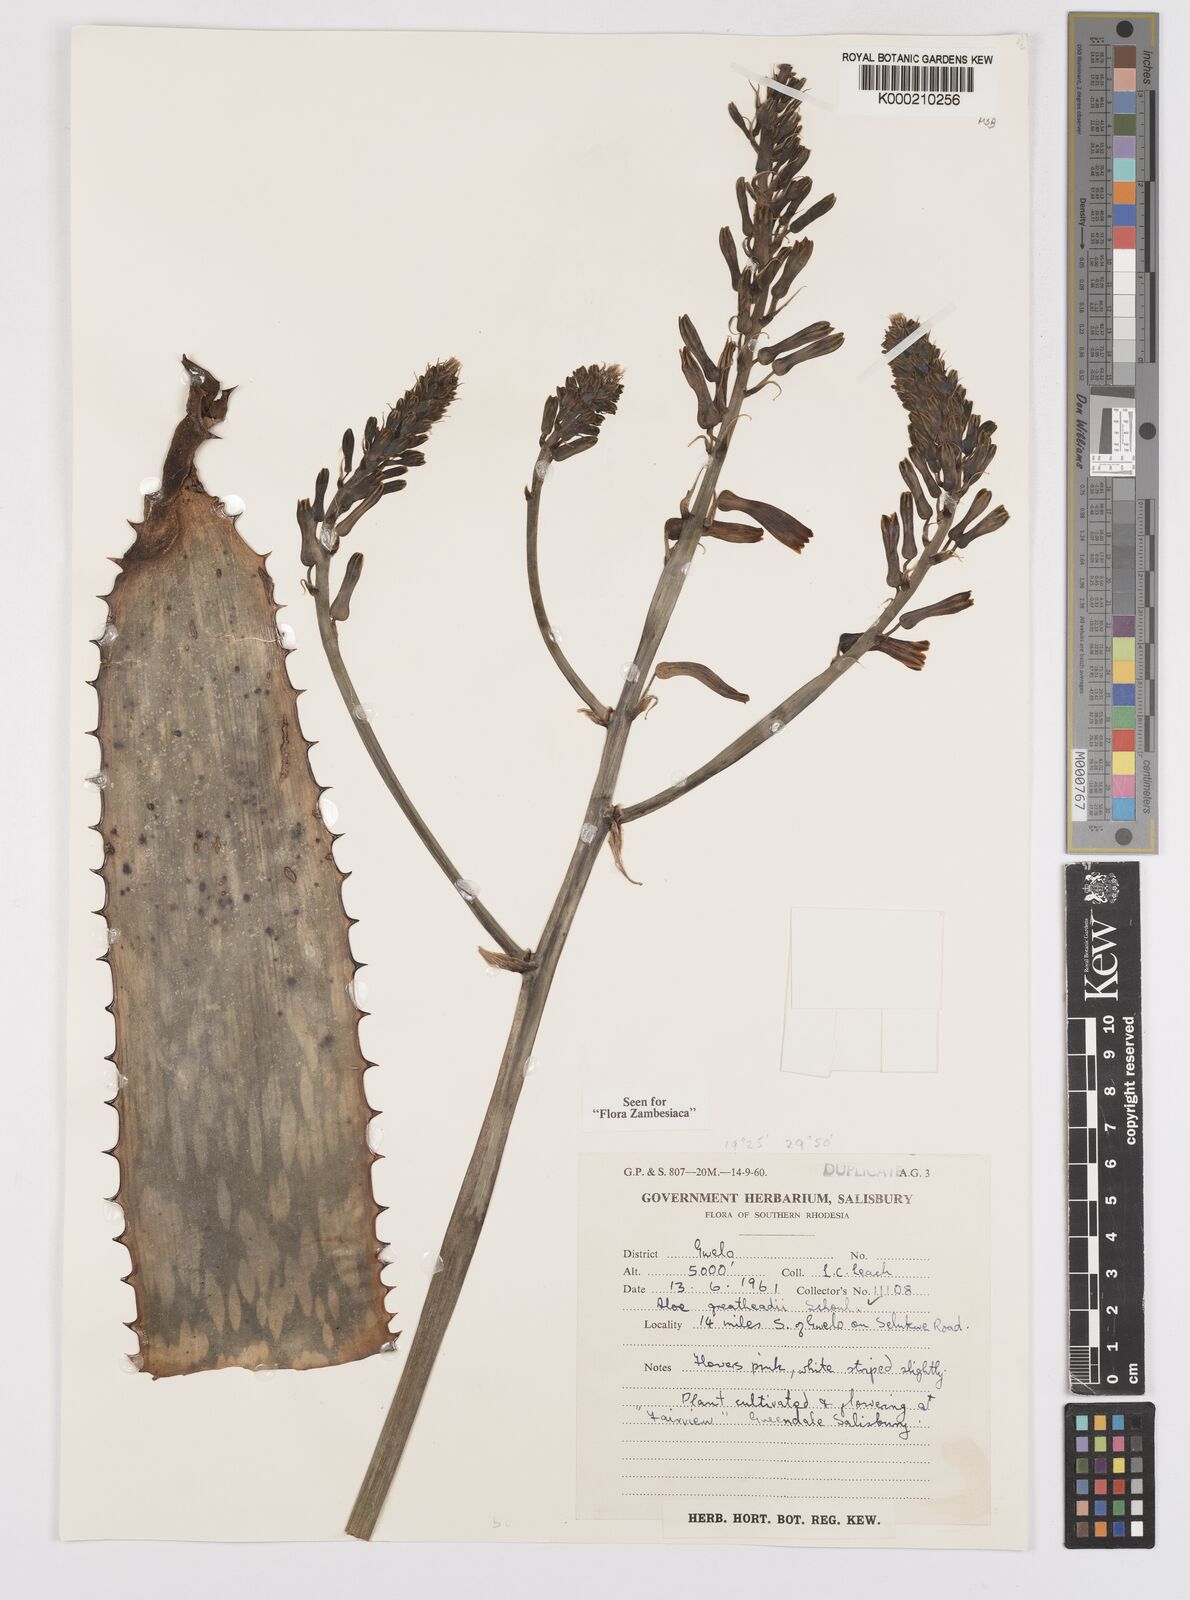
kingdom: Plantae
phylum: Tracheophyta
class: Liliopsida
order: Asparagales
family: Asphodelaceae
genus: Aloe
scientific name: Aloe greatheadii
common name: Greathead's aloe
